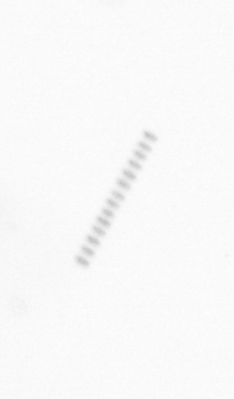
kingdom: Chromista
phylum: Ochrophyta
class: Bacillariophyceae
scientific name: Bacillariophyceae
